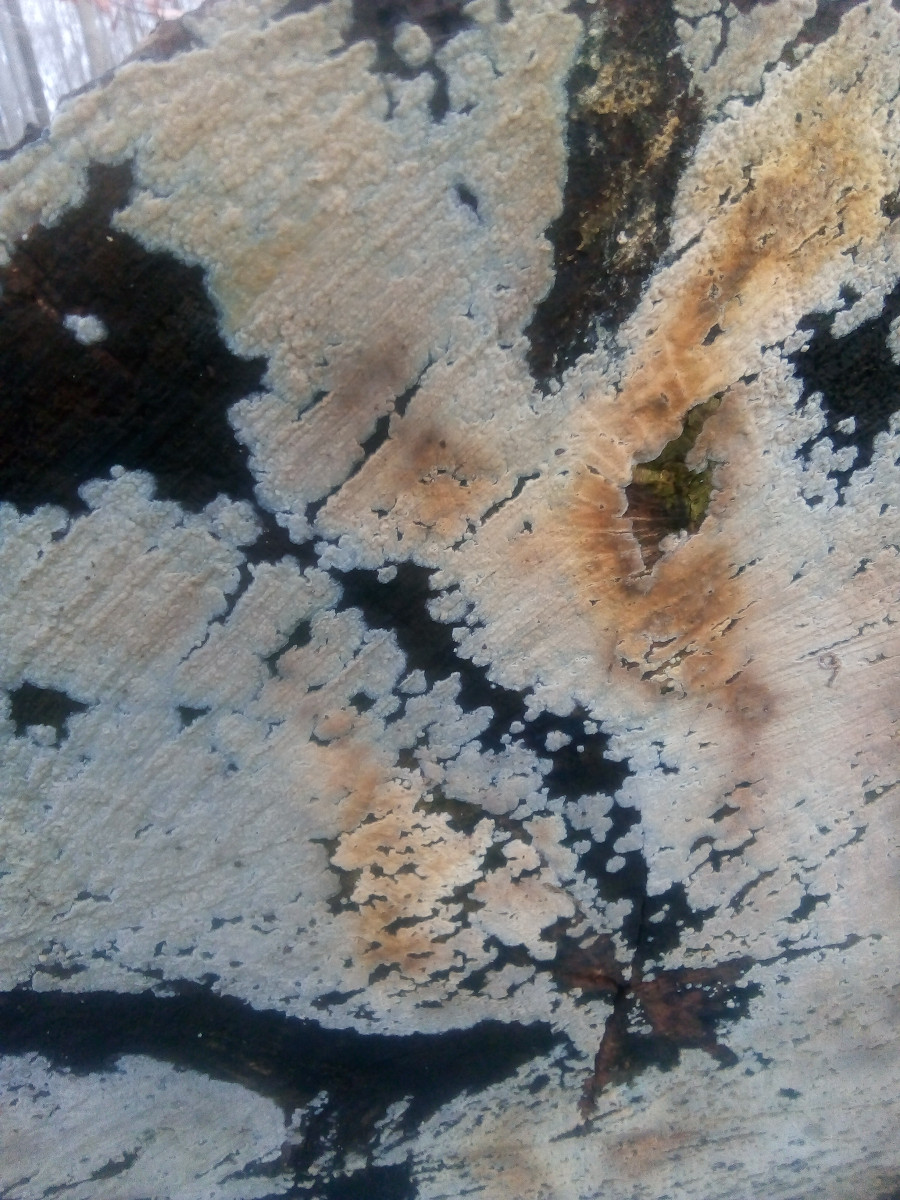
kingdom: Fungi
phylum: Basidiomycota
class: Agaricomycetes
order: Agaricales
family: Radulomycetaceae
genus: Radulomyces
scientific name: Radulomyces confluens
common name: glat naftalinskind
